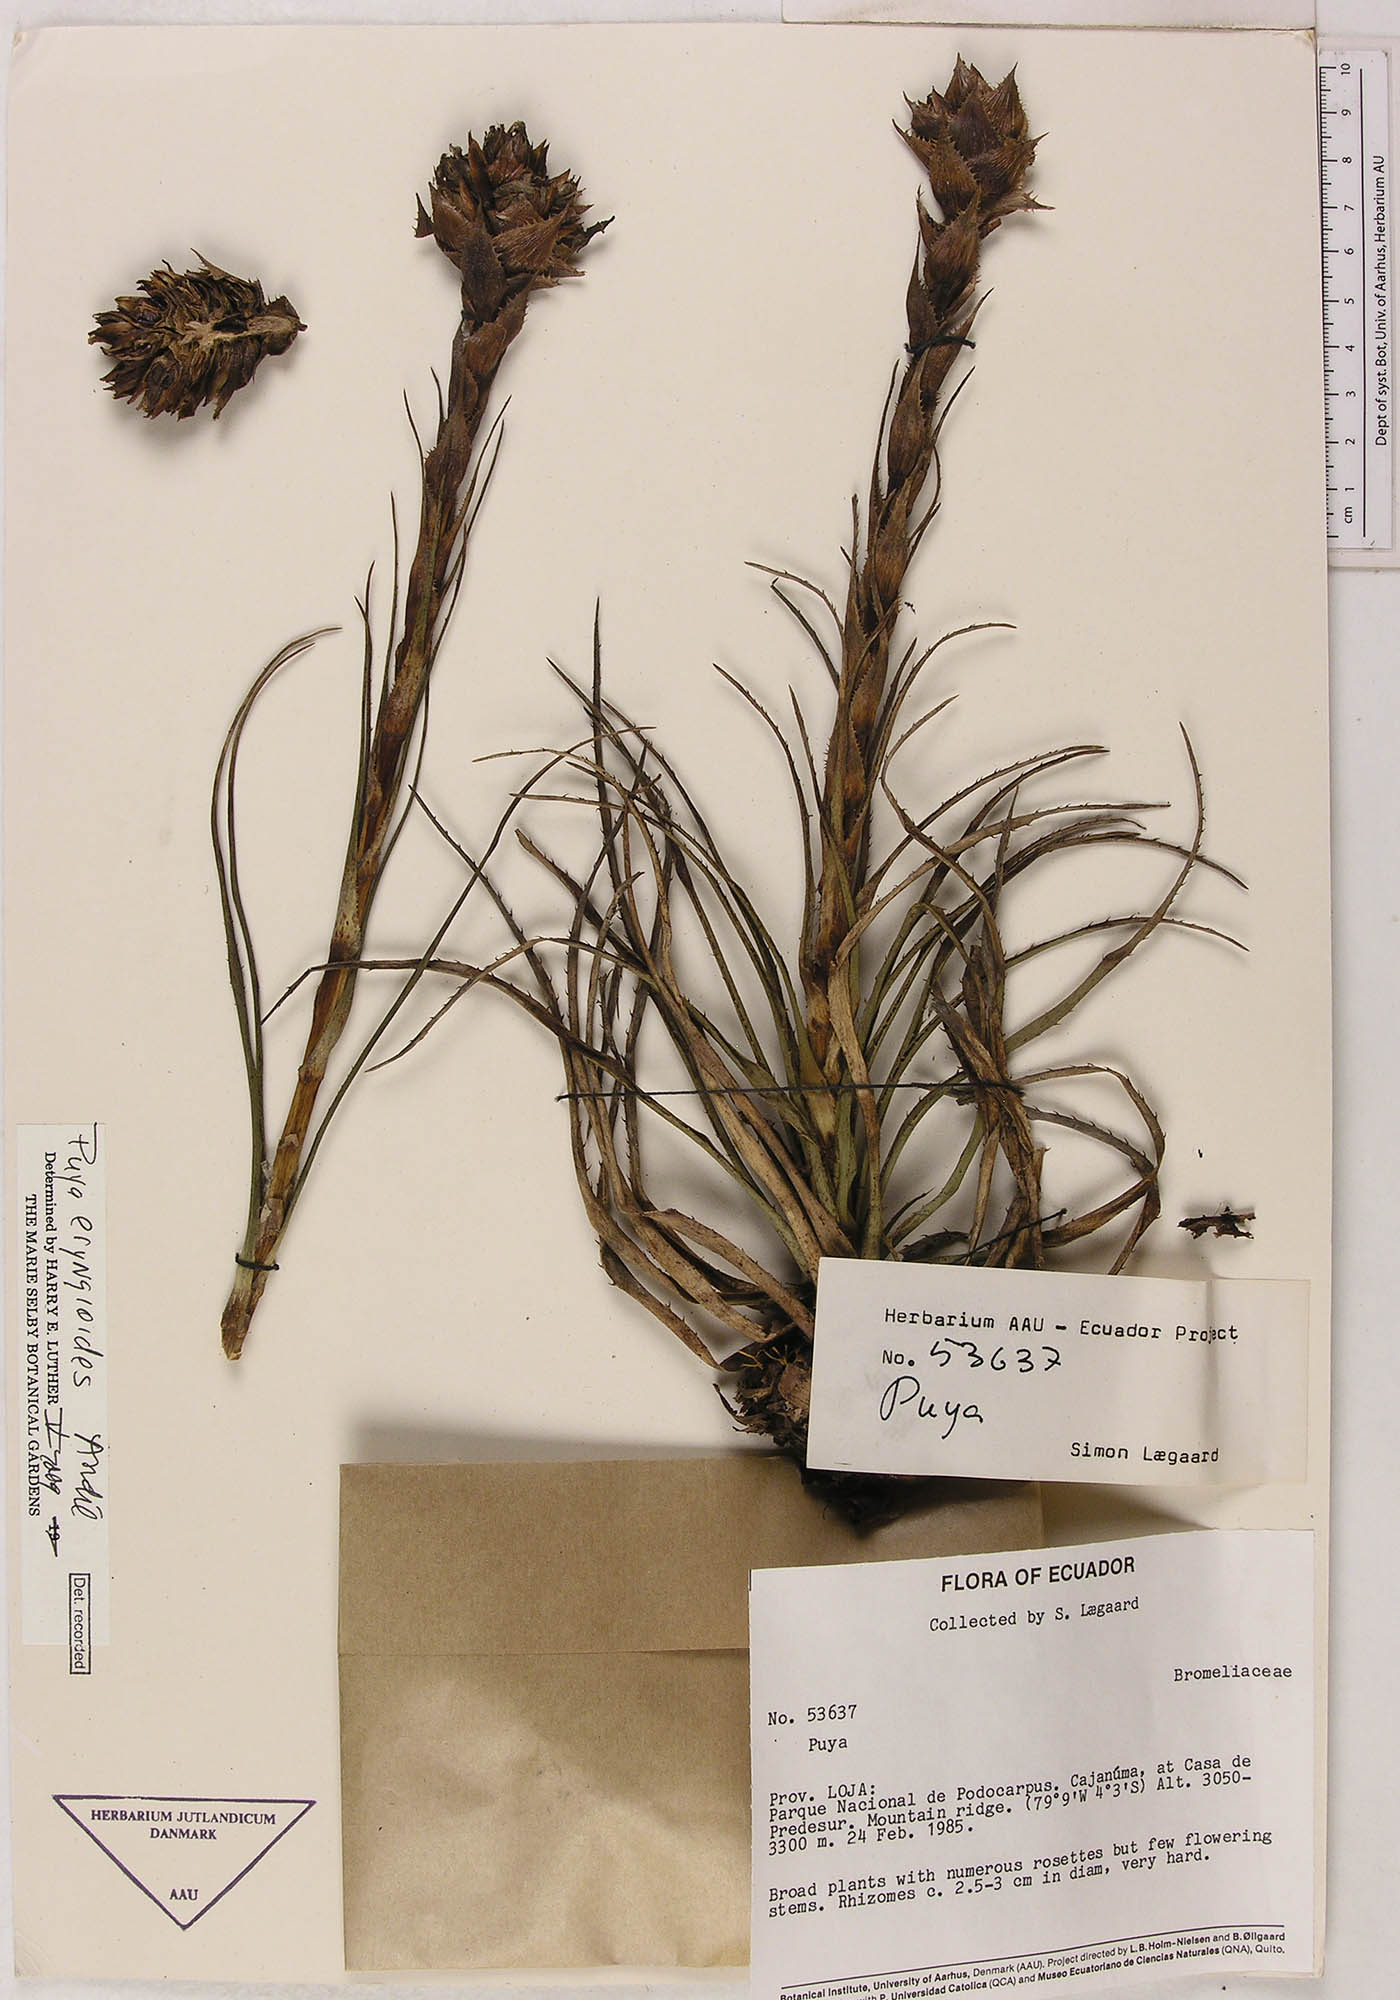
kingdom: Plantae
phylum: Tracheophyta
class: Liliopsida
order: Poales
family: Bromeliaceae
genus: Puya
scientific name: Puya eryngioides
